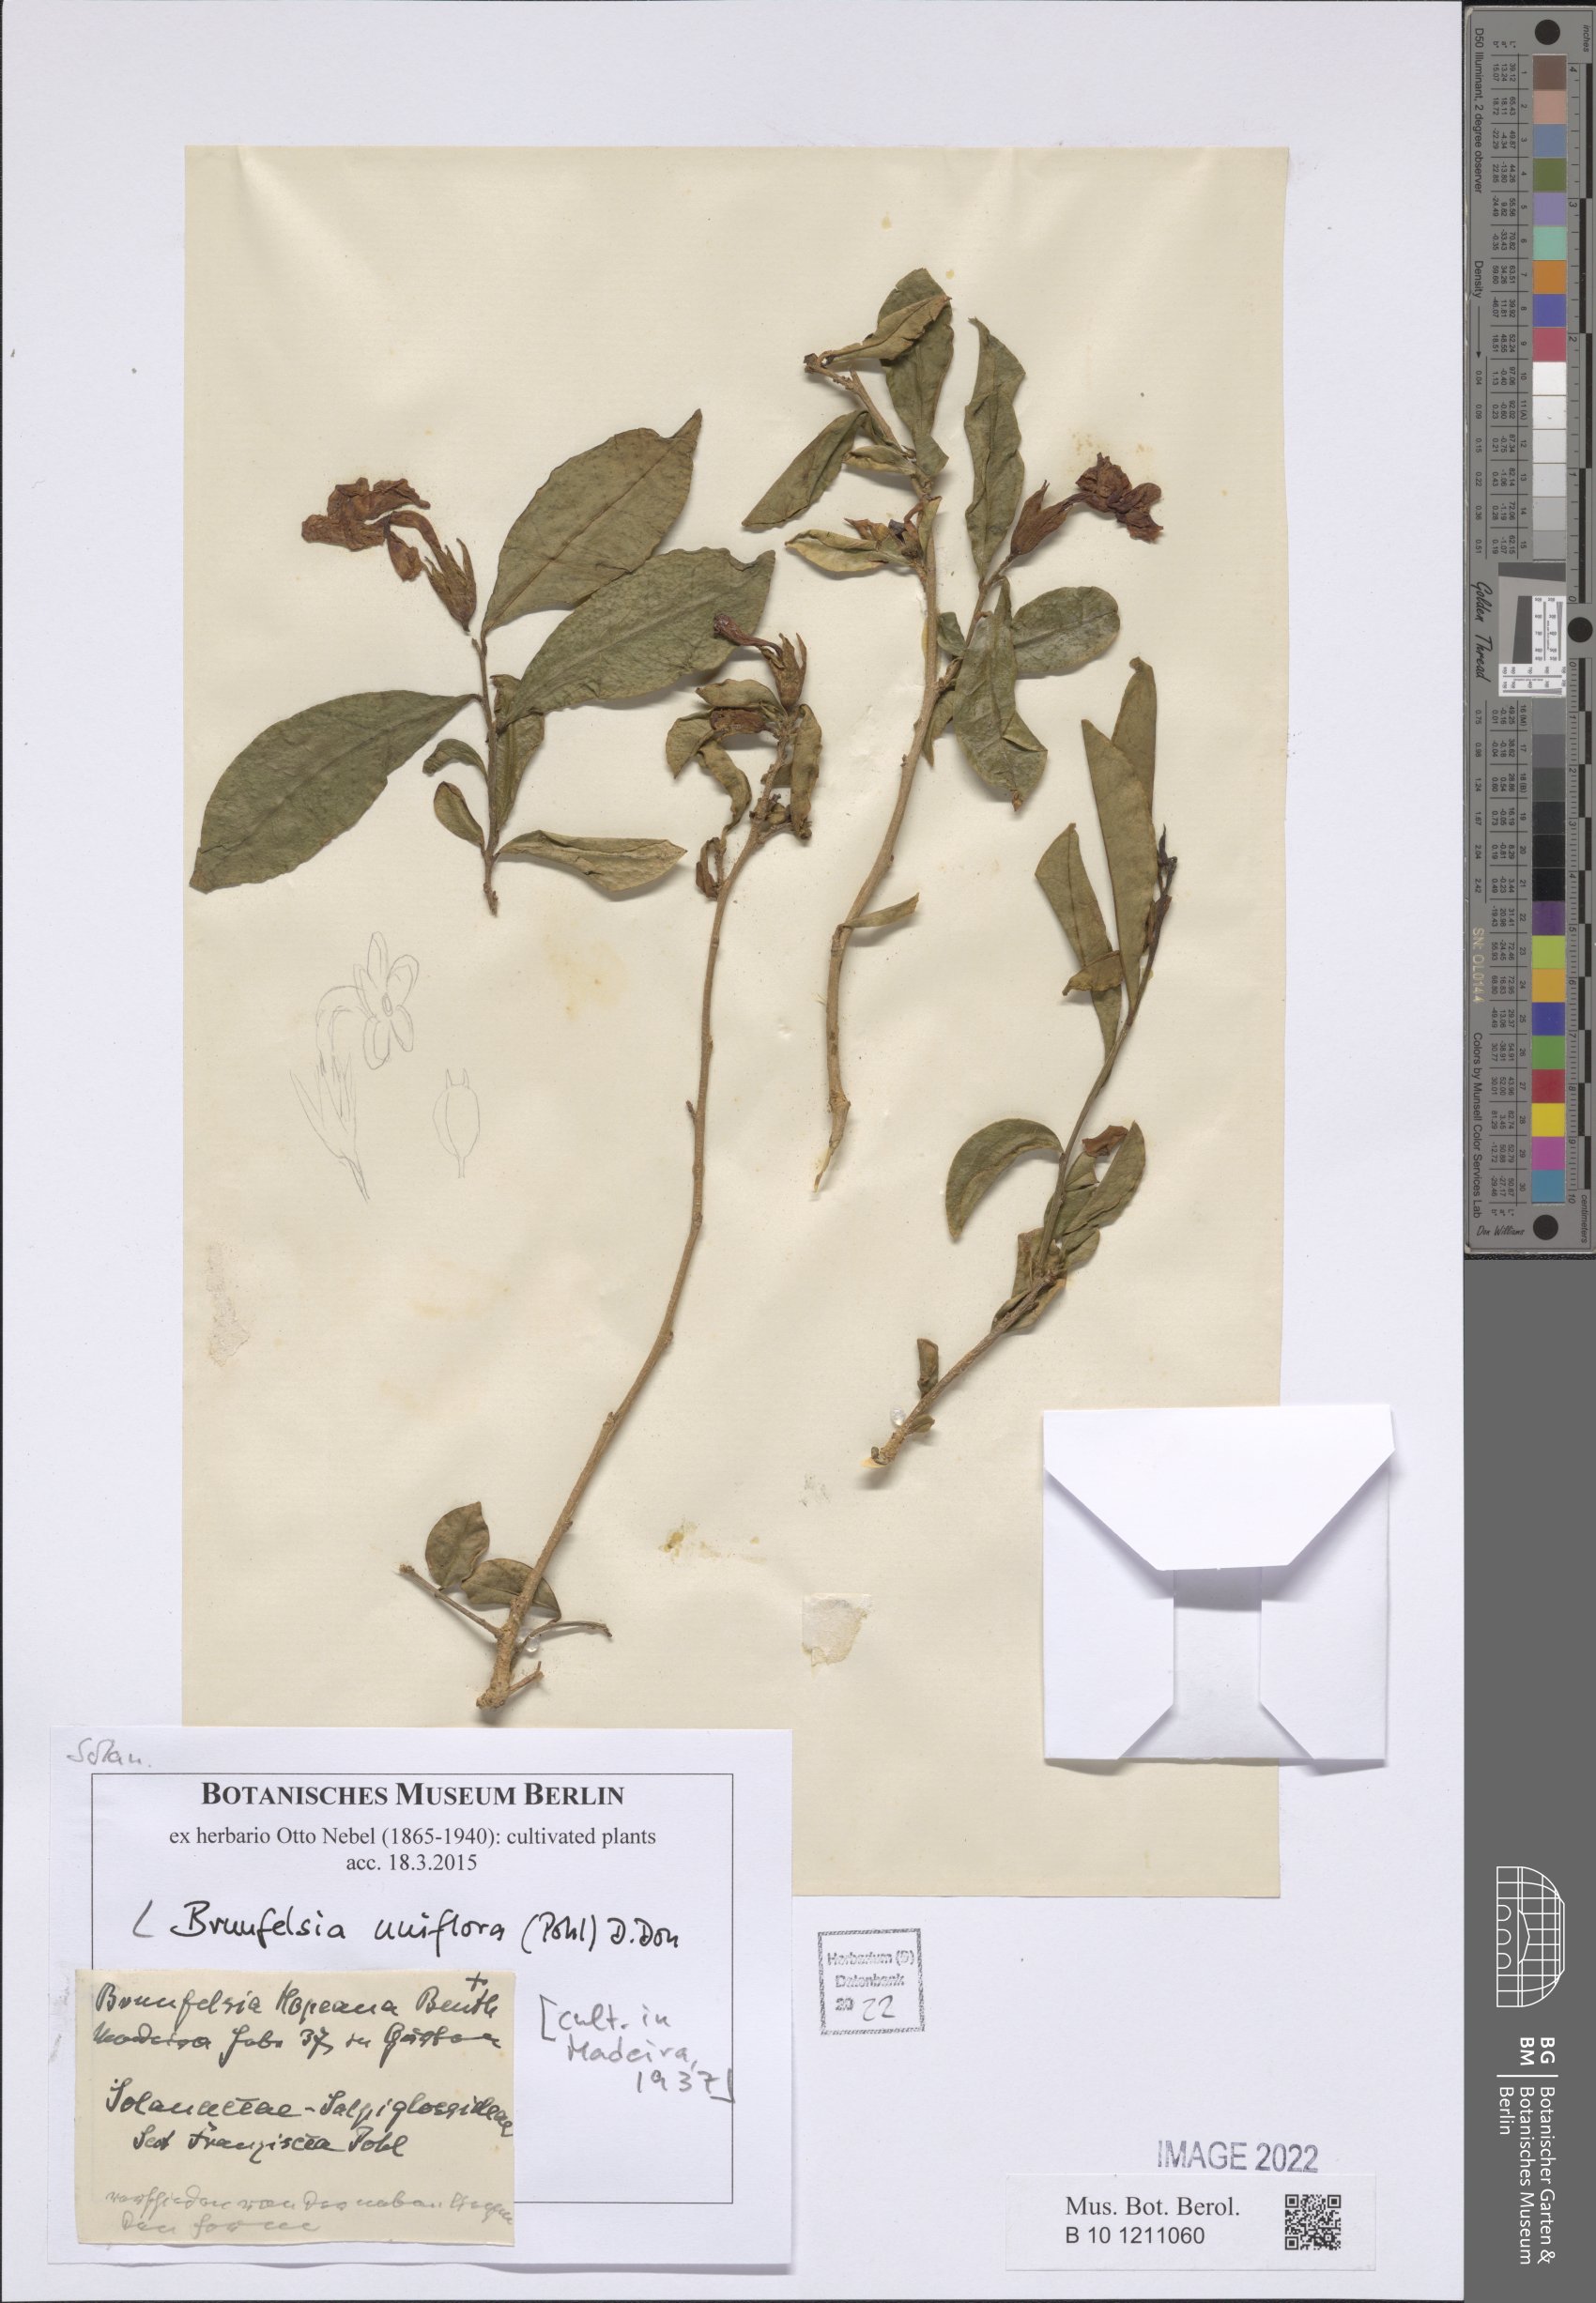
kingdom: Plantae
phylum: Tracheophyta
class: Magnoliopsida
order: Solanales
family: Solanaceae
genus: Brunfelsia
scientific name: Brunfelsia uniflora
